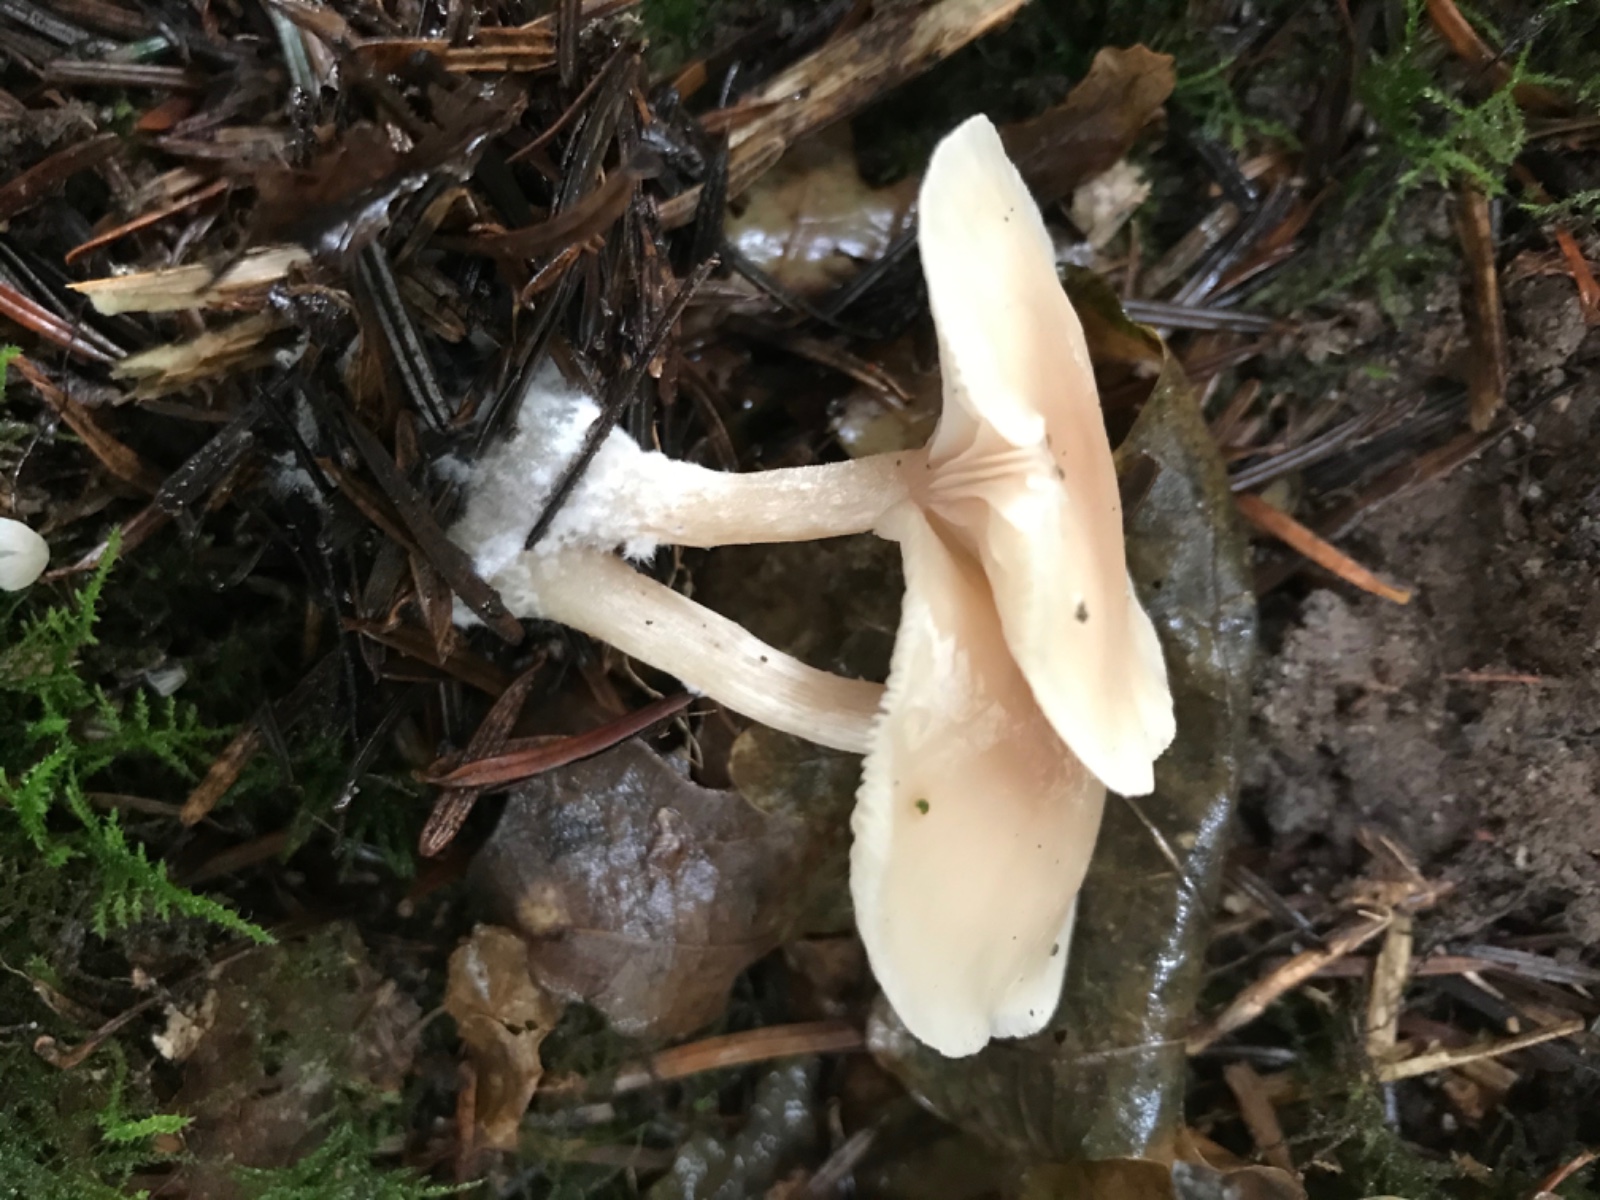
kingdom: Fungi
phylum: Basidiomycota
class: Agaricomycetes
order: Agaricales
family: Tricholomataceae
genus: Clitocybe
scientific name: Clitocybe fragrans
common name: vellugtende tragthat
